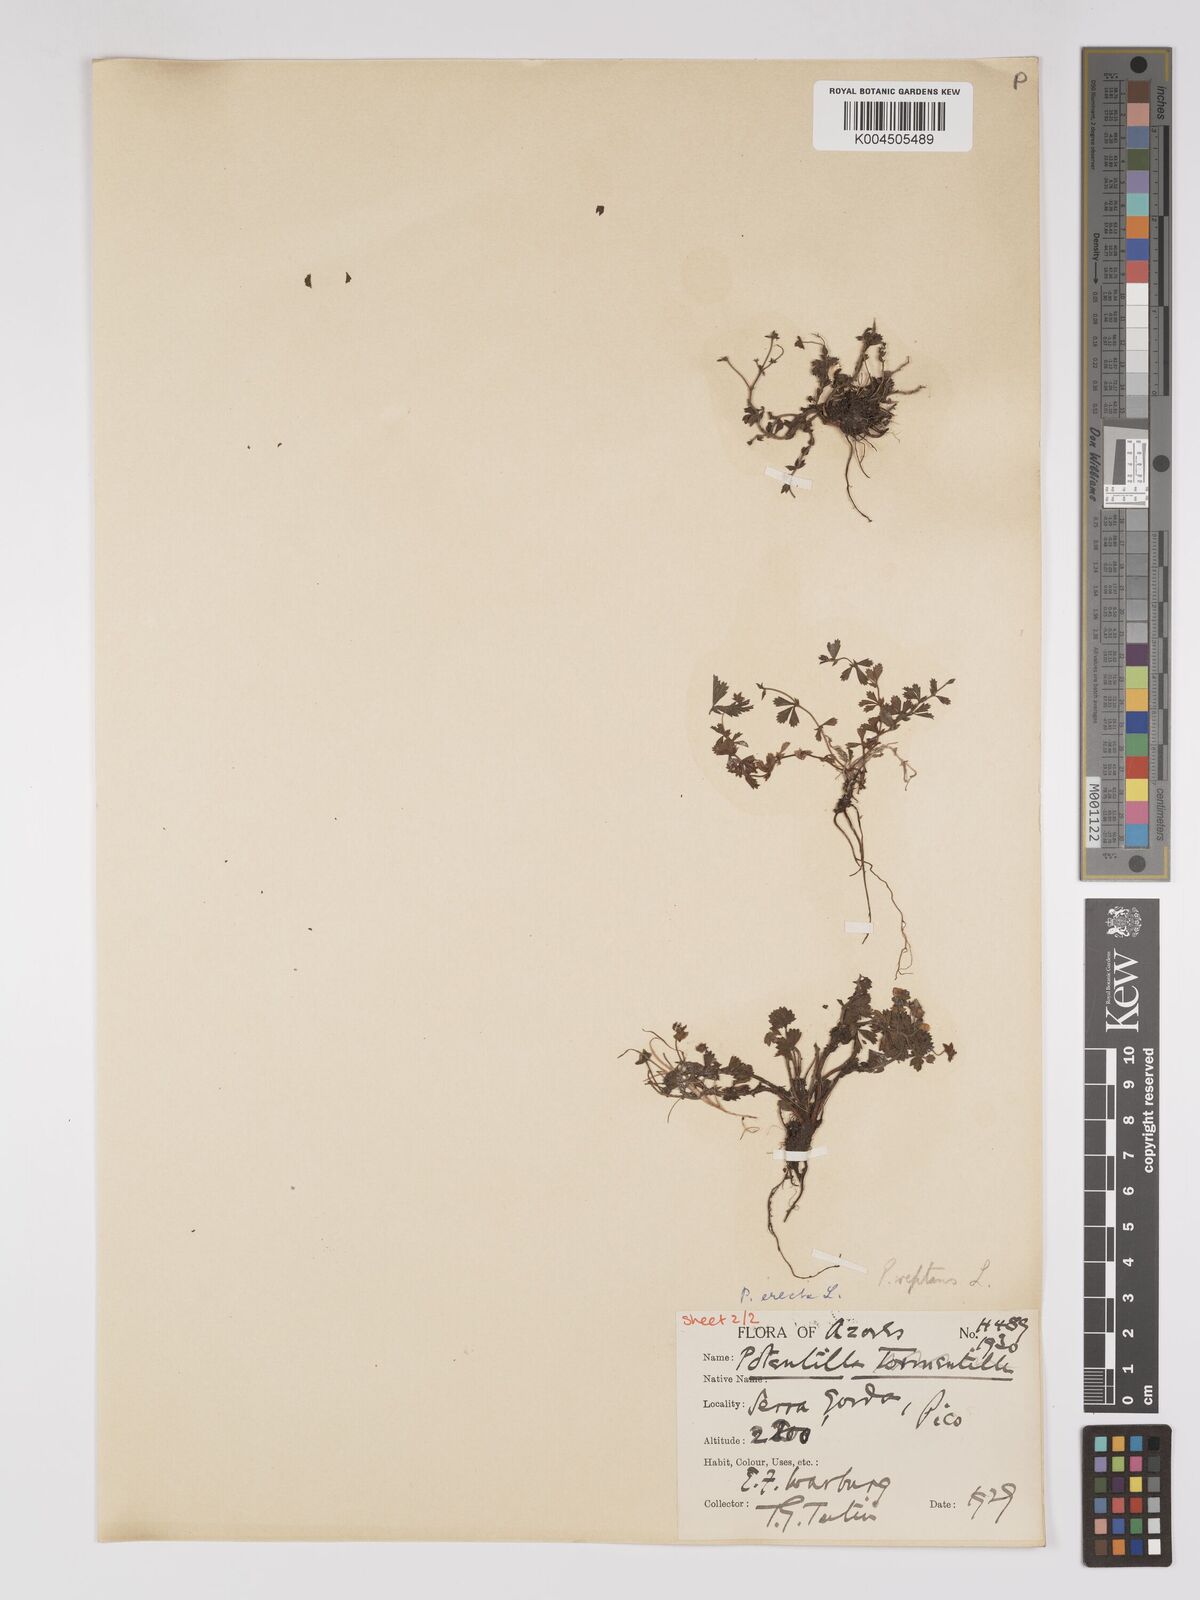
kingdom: Plantae
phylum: Tracheophyta
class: Magnoliopsida
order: Rosales
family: Rosaceae
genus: Potentilla
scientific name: Potentilla reptans
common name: Creeping cinquefoil
